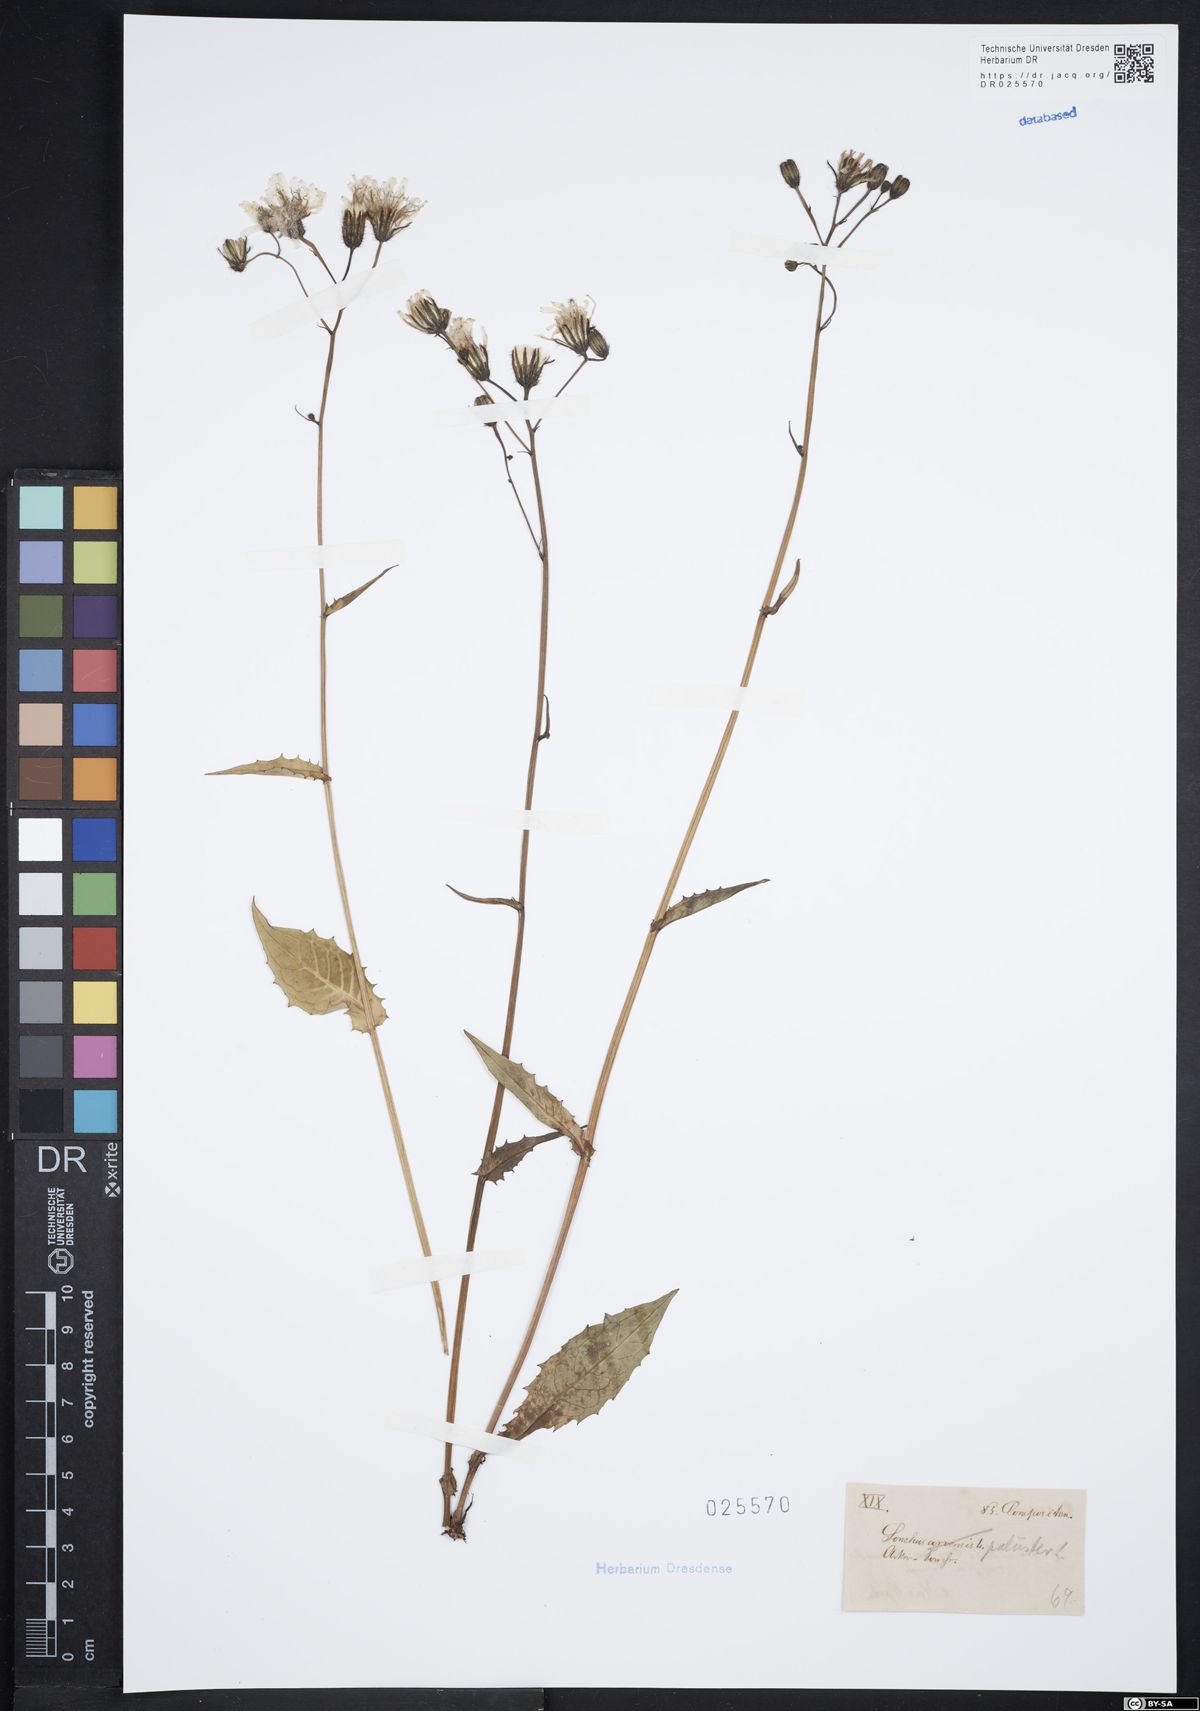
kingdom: Plantae
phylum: Tracheophyta
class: Magnoliopsida
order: Asterales
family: Asteraceae
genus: Sonchus
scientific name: Sonchus palustris
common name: Marsh sow-thistle
